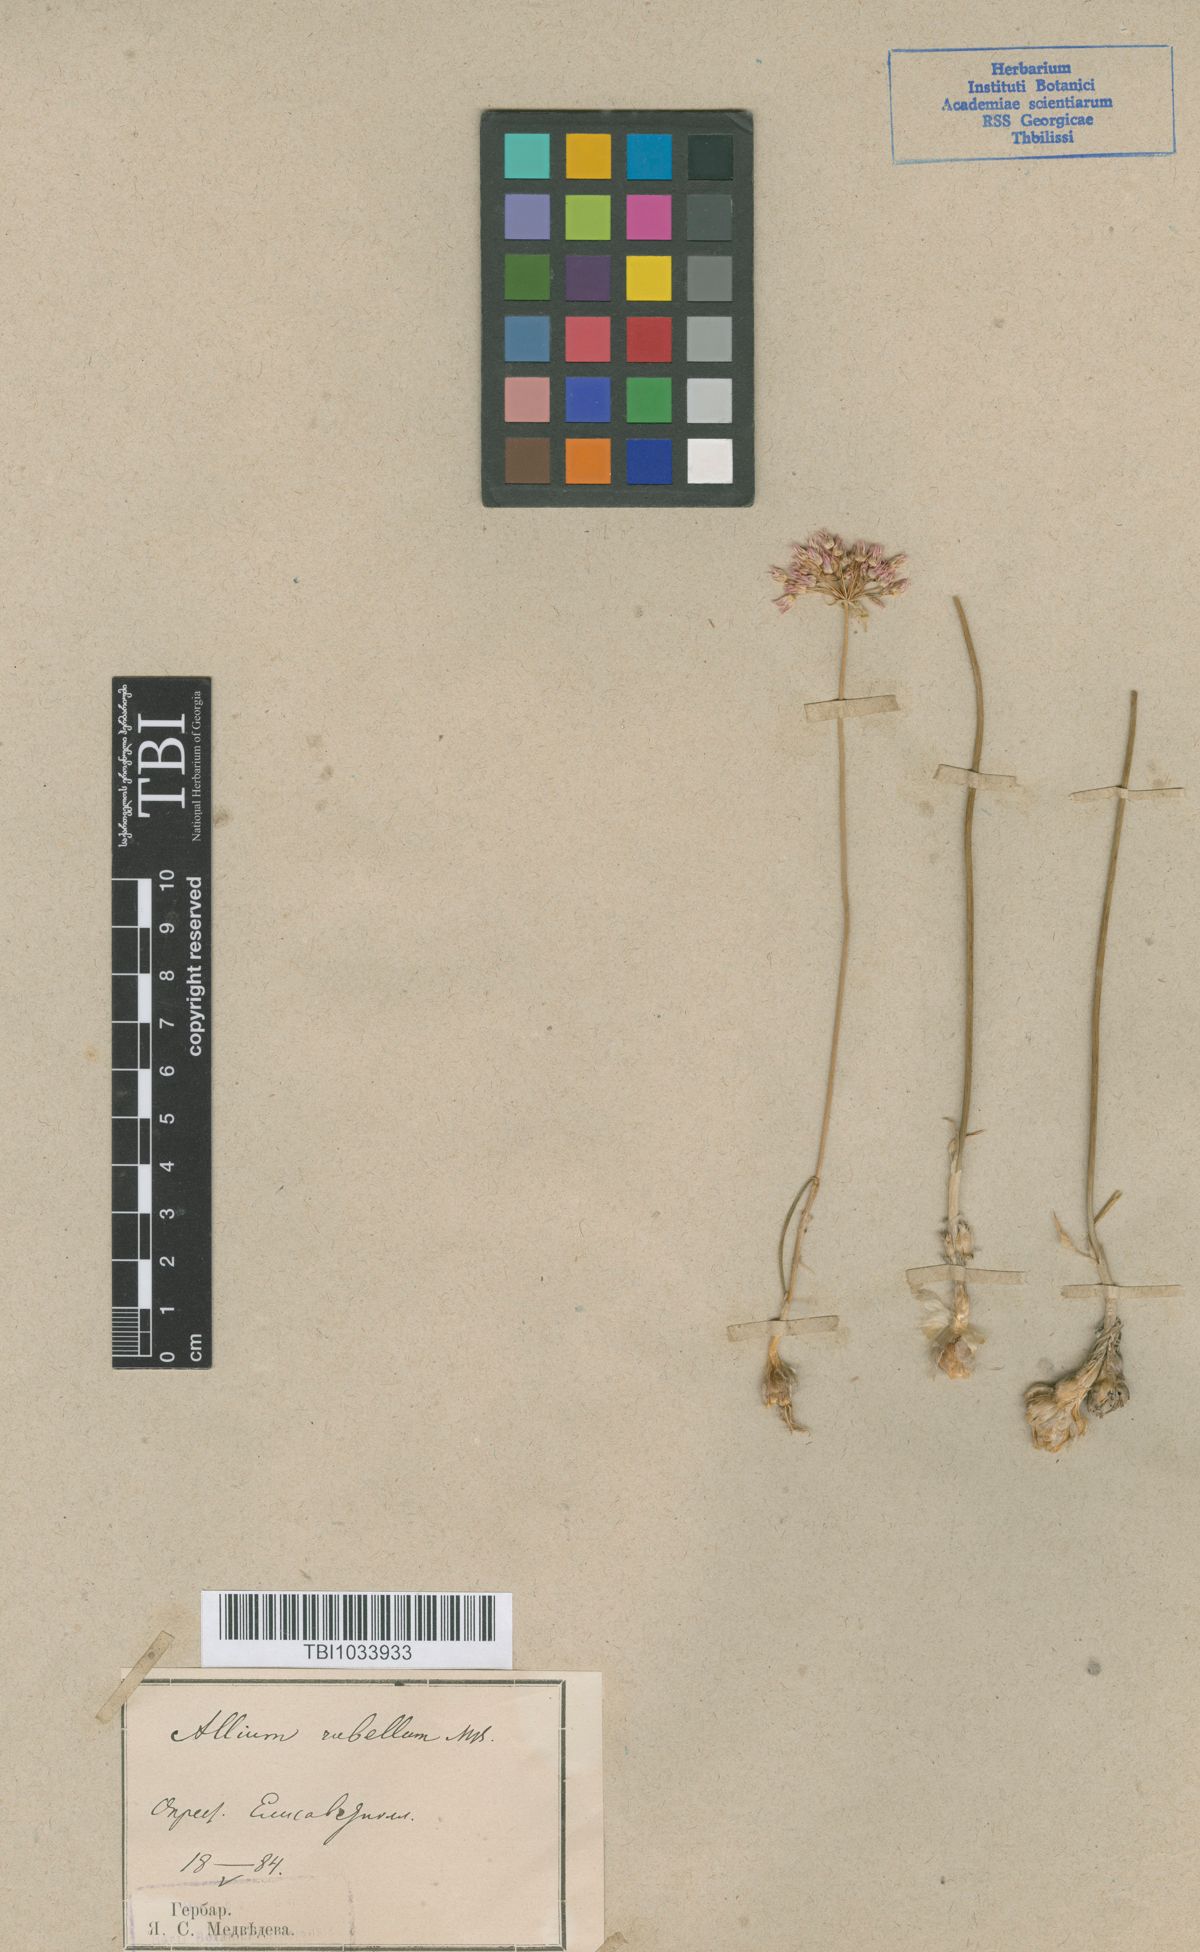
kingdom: Plantae
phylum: Tracheophyta
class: Liliopsida
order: Asparagales
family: Amaryllidaceae
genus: Allium
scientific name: Allium rubellum
